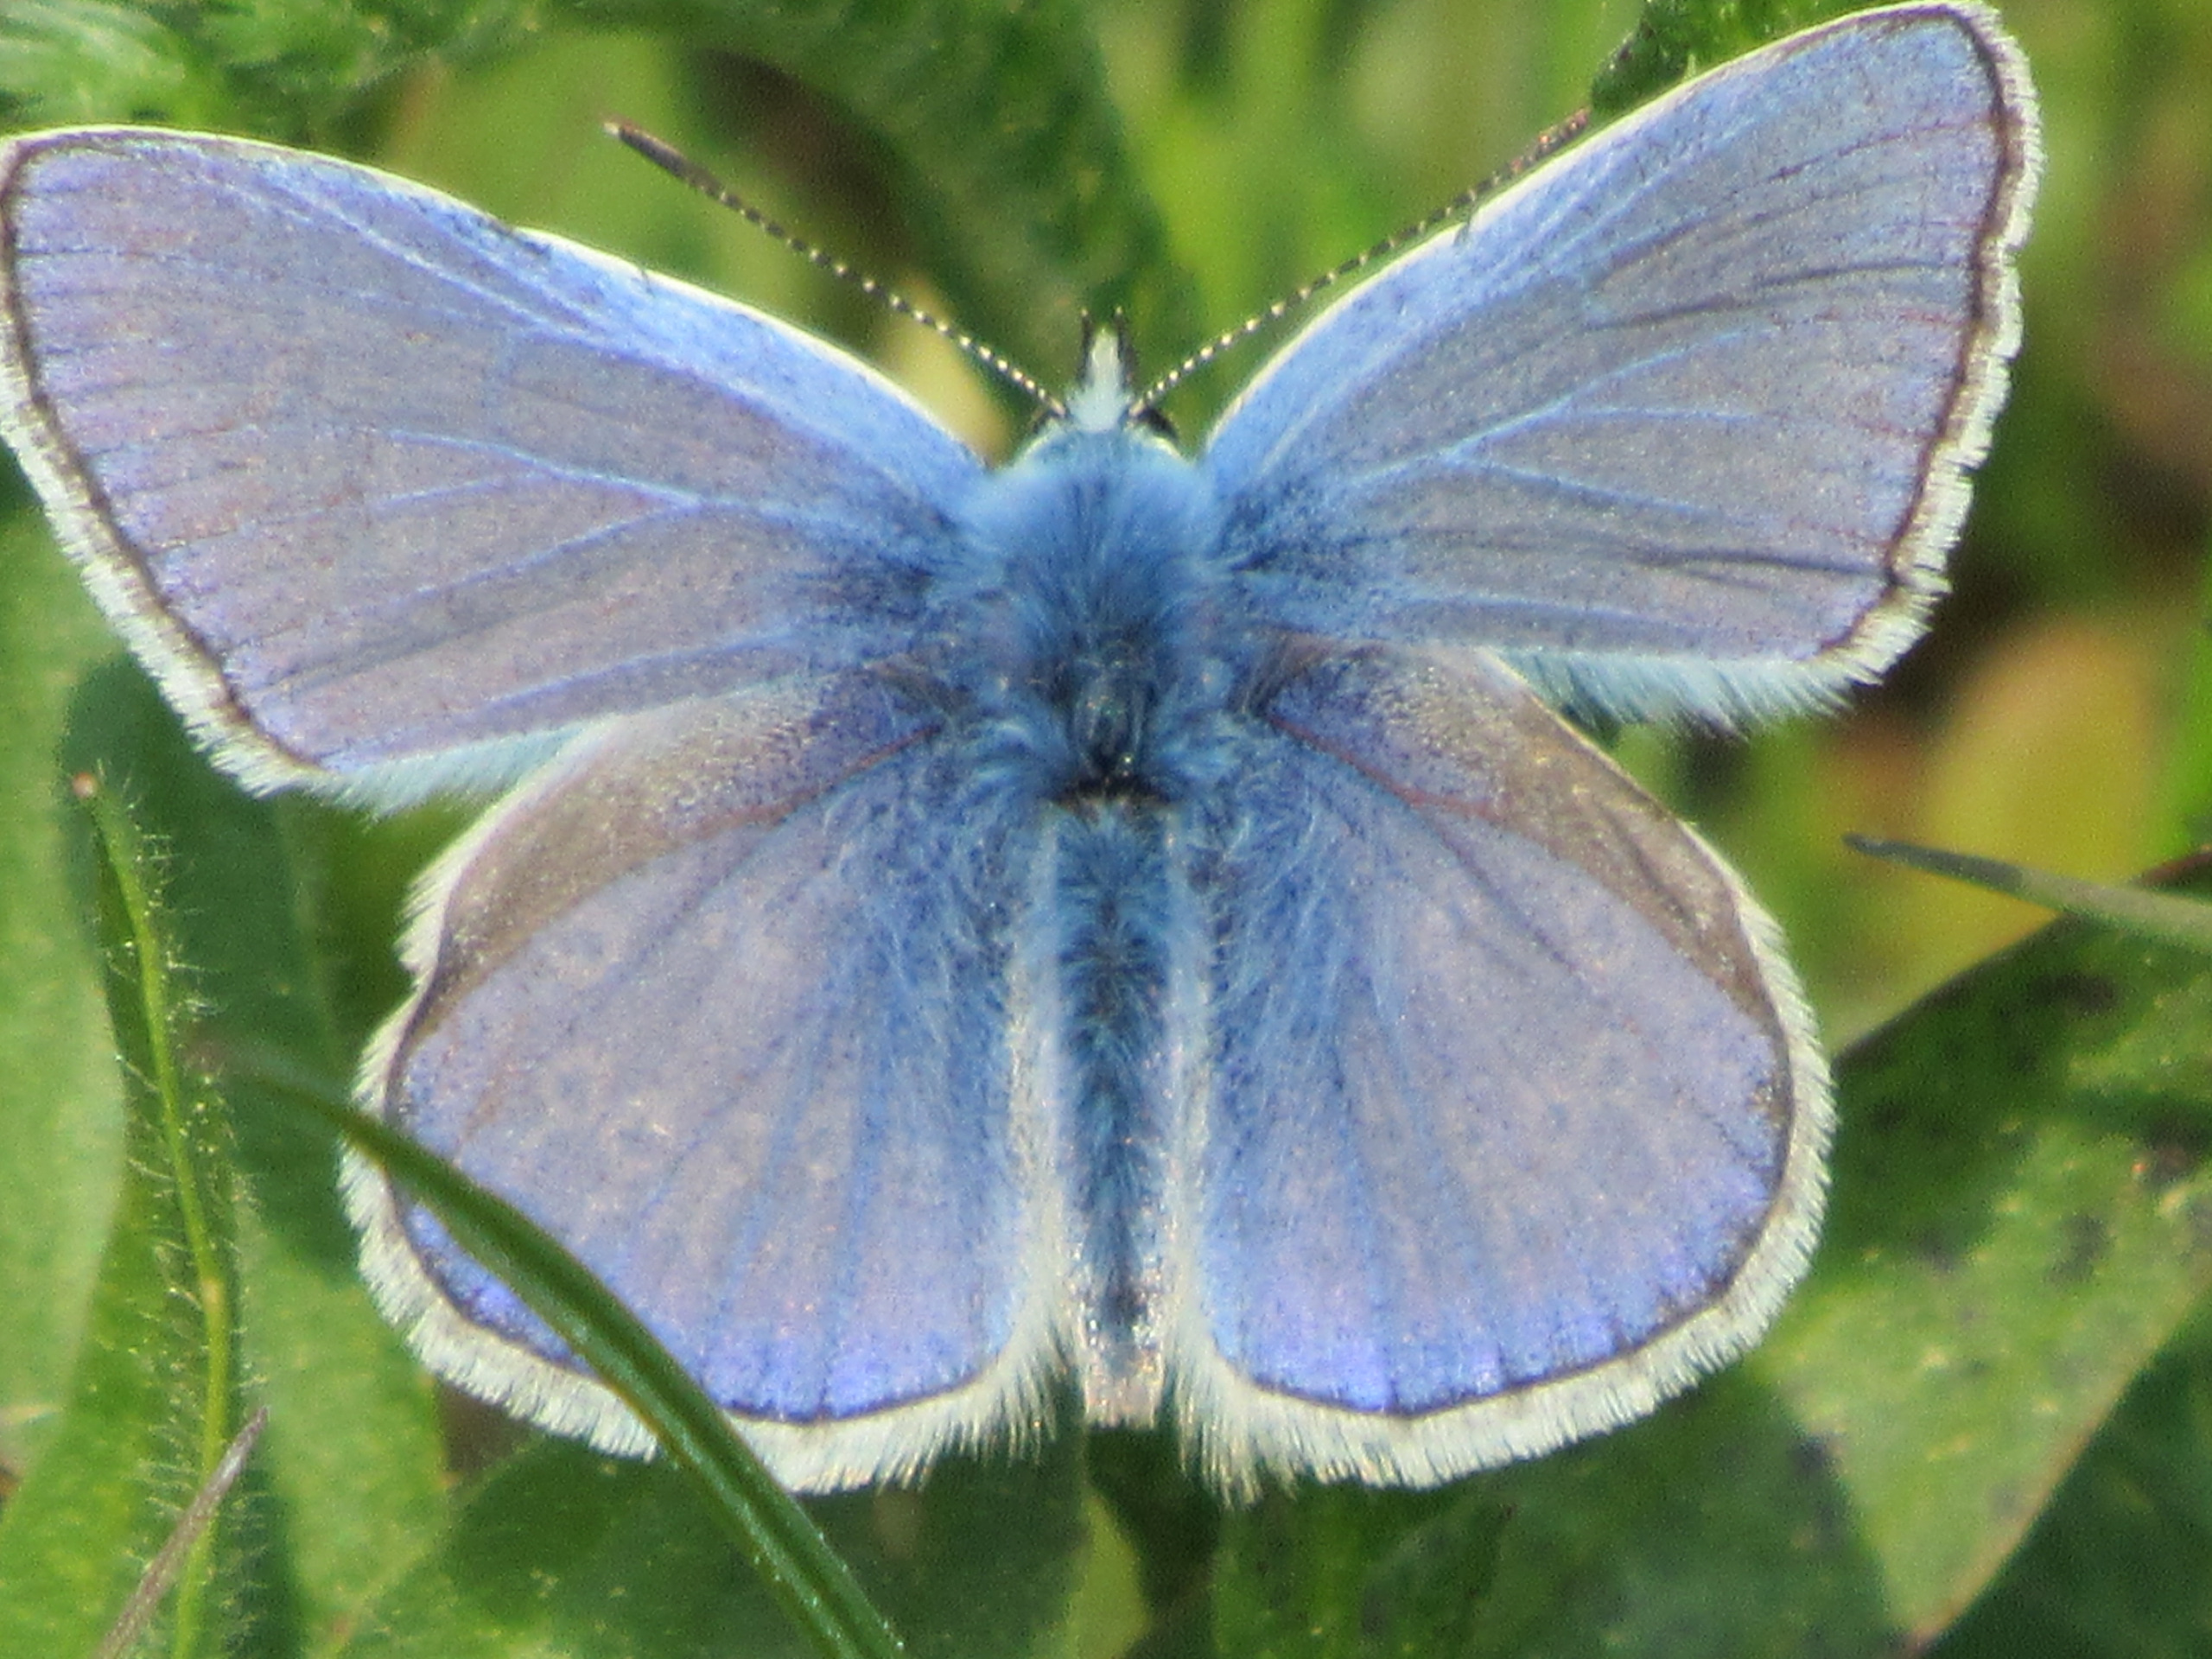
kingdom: Animalia
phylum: Arthropoda
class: Insecta
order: Lepidoptera
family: Lycaenidae
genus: Polyommatus
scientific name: Polyommatus icarus
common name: Almindelig blåfugl
